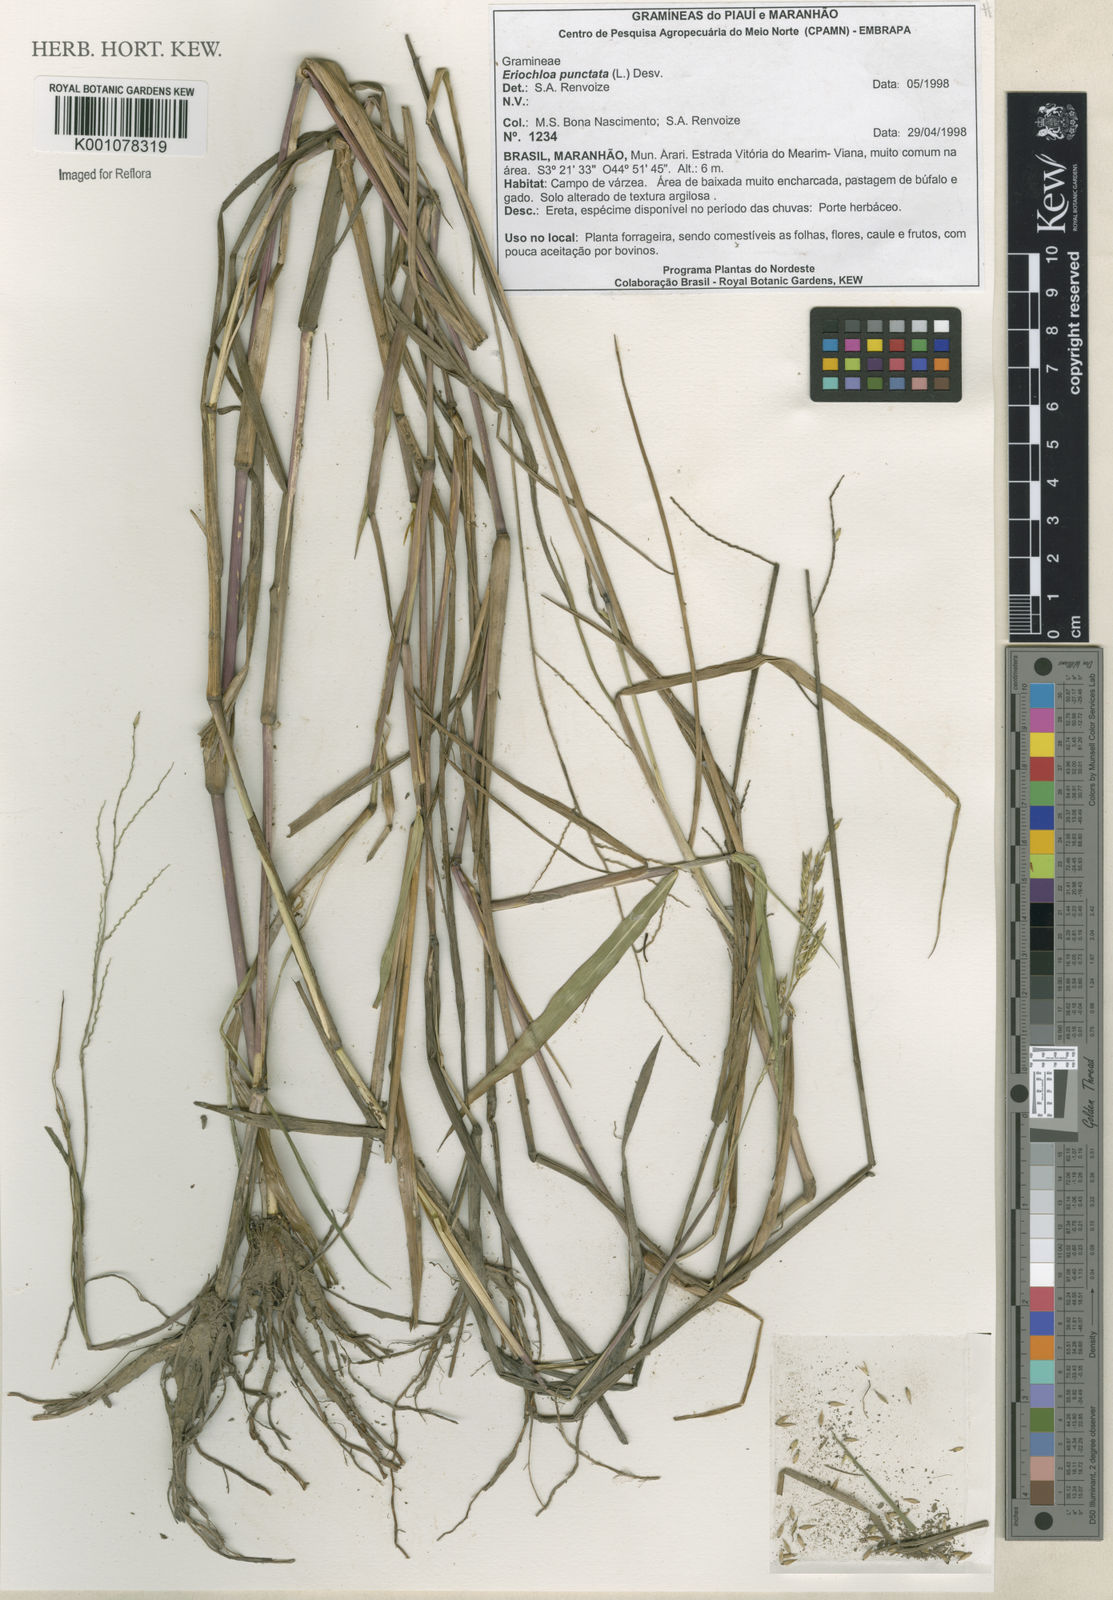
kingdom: Plantae
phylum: Tracheophyta
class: Liliopsida
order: Poales
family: Poaceae
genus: Eriochloa
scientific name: Eriochloa punctata
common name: Louisiana cupgrass
